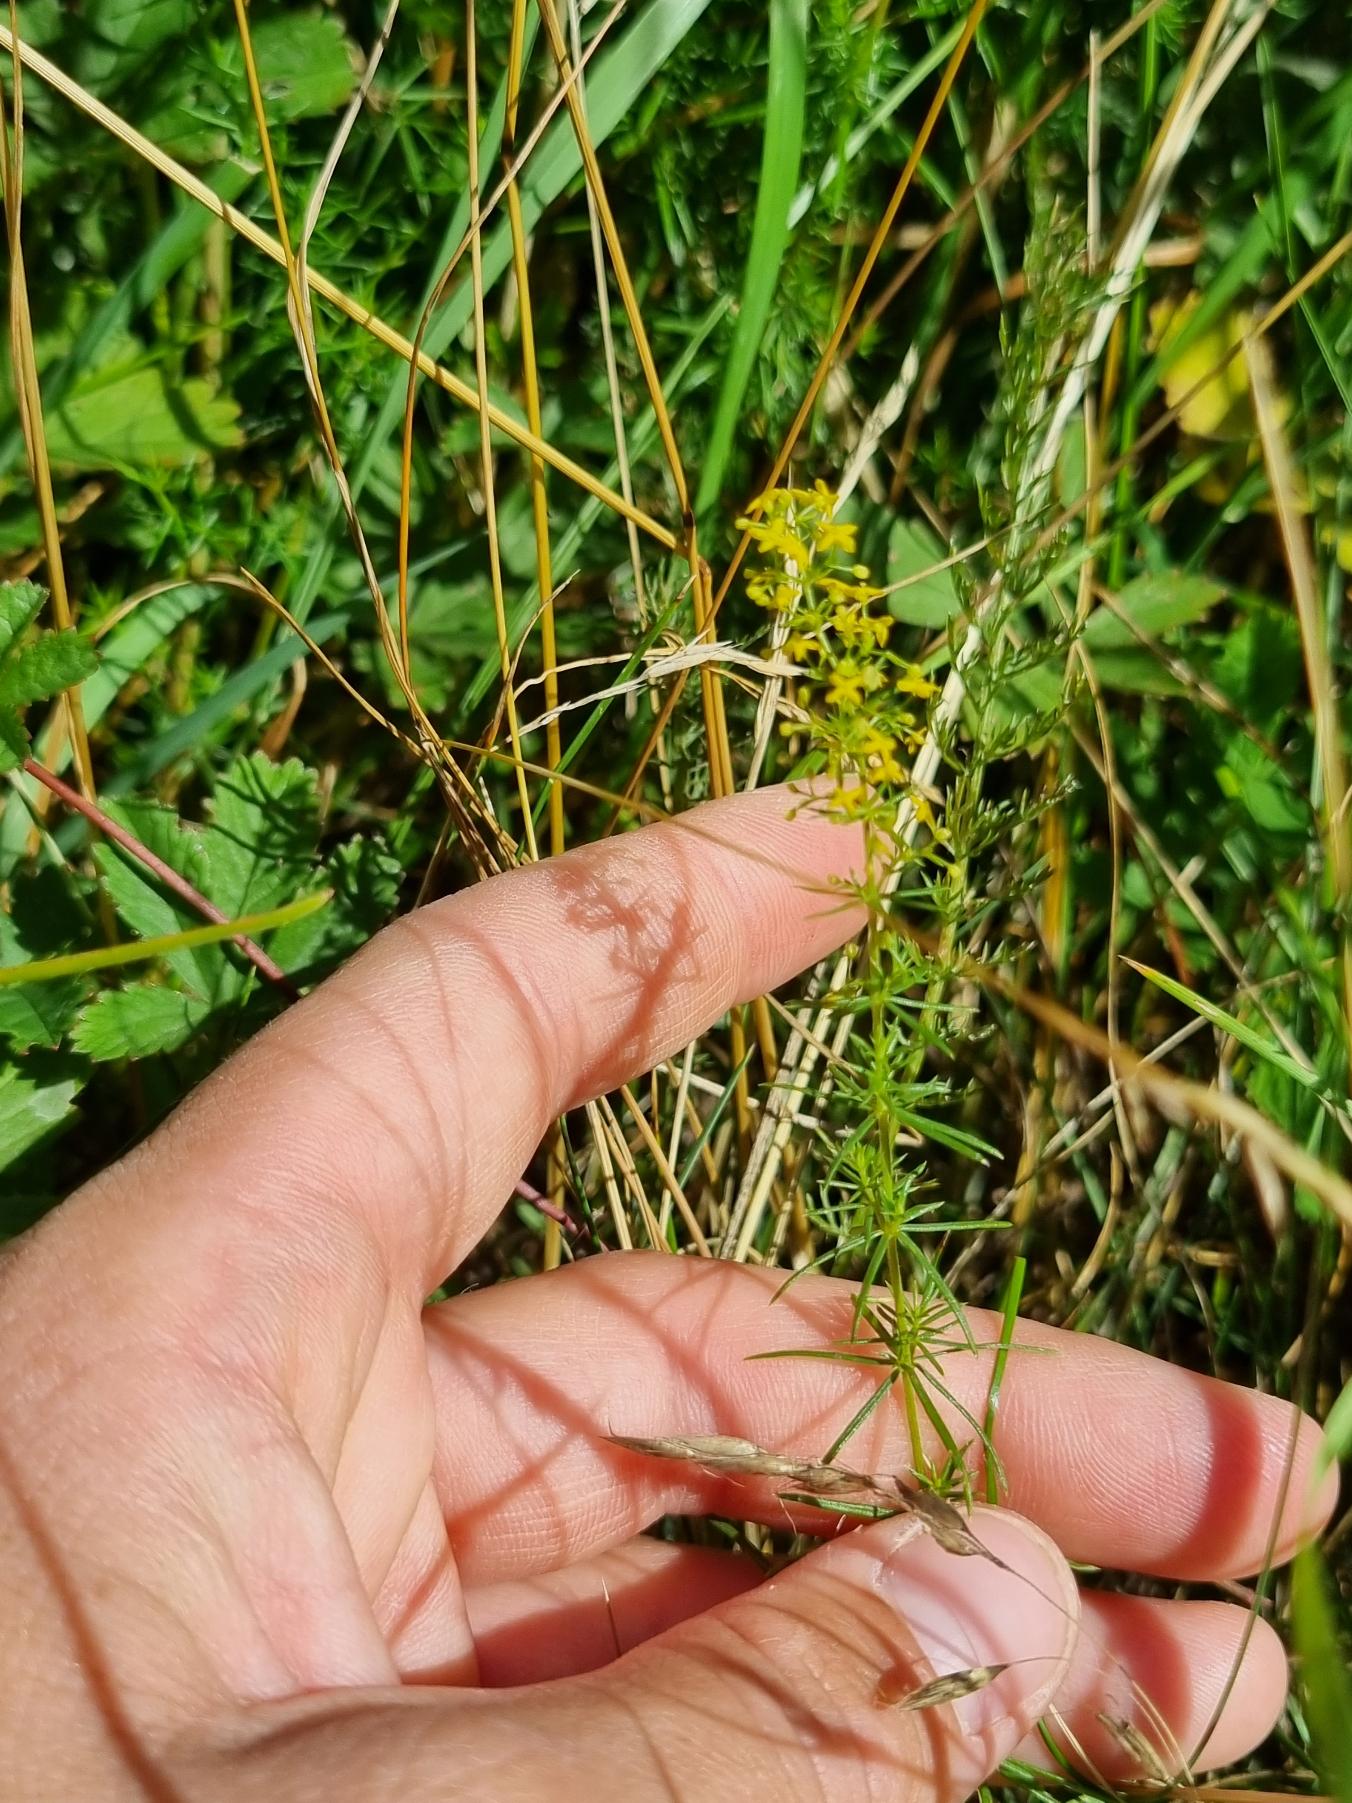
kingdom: Plantae
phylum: Tracheophyta
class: Magnoliopsida
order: Gentianales
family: Rubiaceae
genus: Galium
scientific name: Galium verum
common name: Gul snerre
